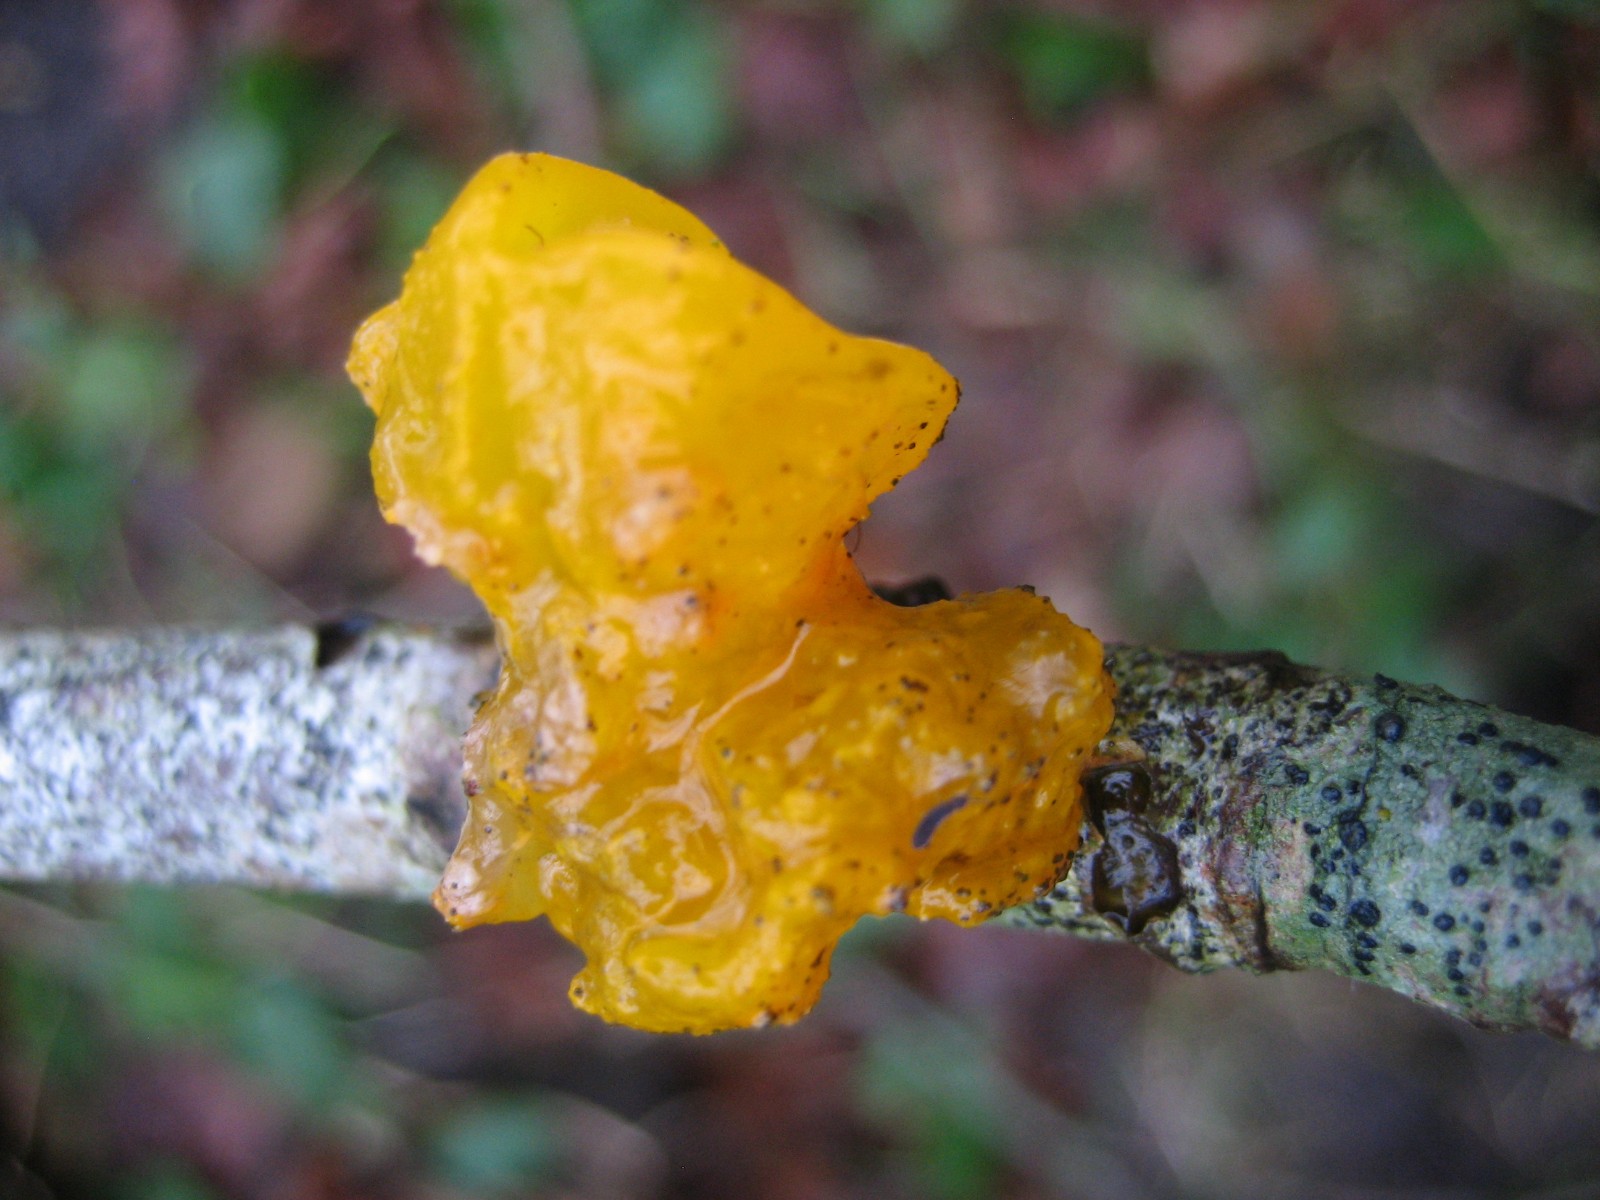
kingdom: Fungi
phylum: Basidiomycota
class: Tremellomycetes
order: Tremellales
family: Tremellaceae
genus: Tremella
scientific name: Tremella mesenterica
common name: gul bævresvamp
